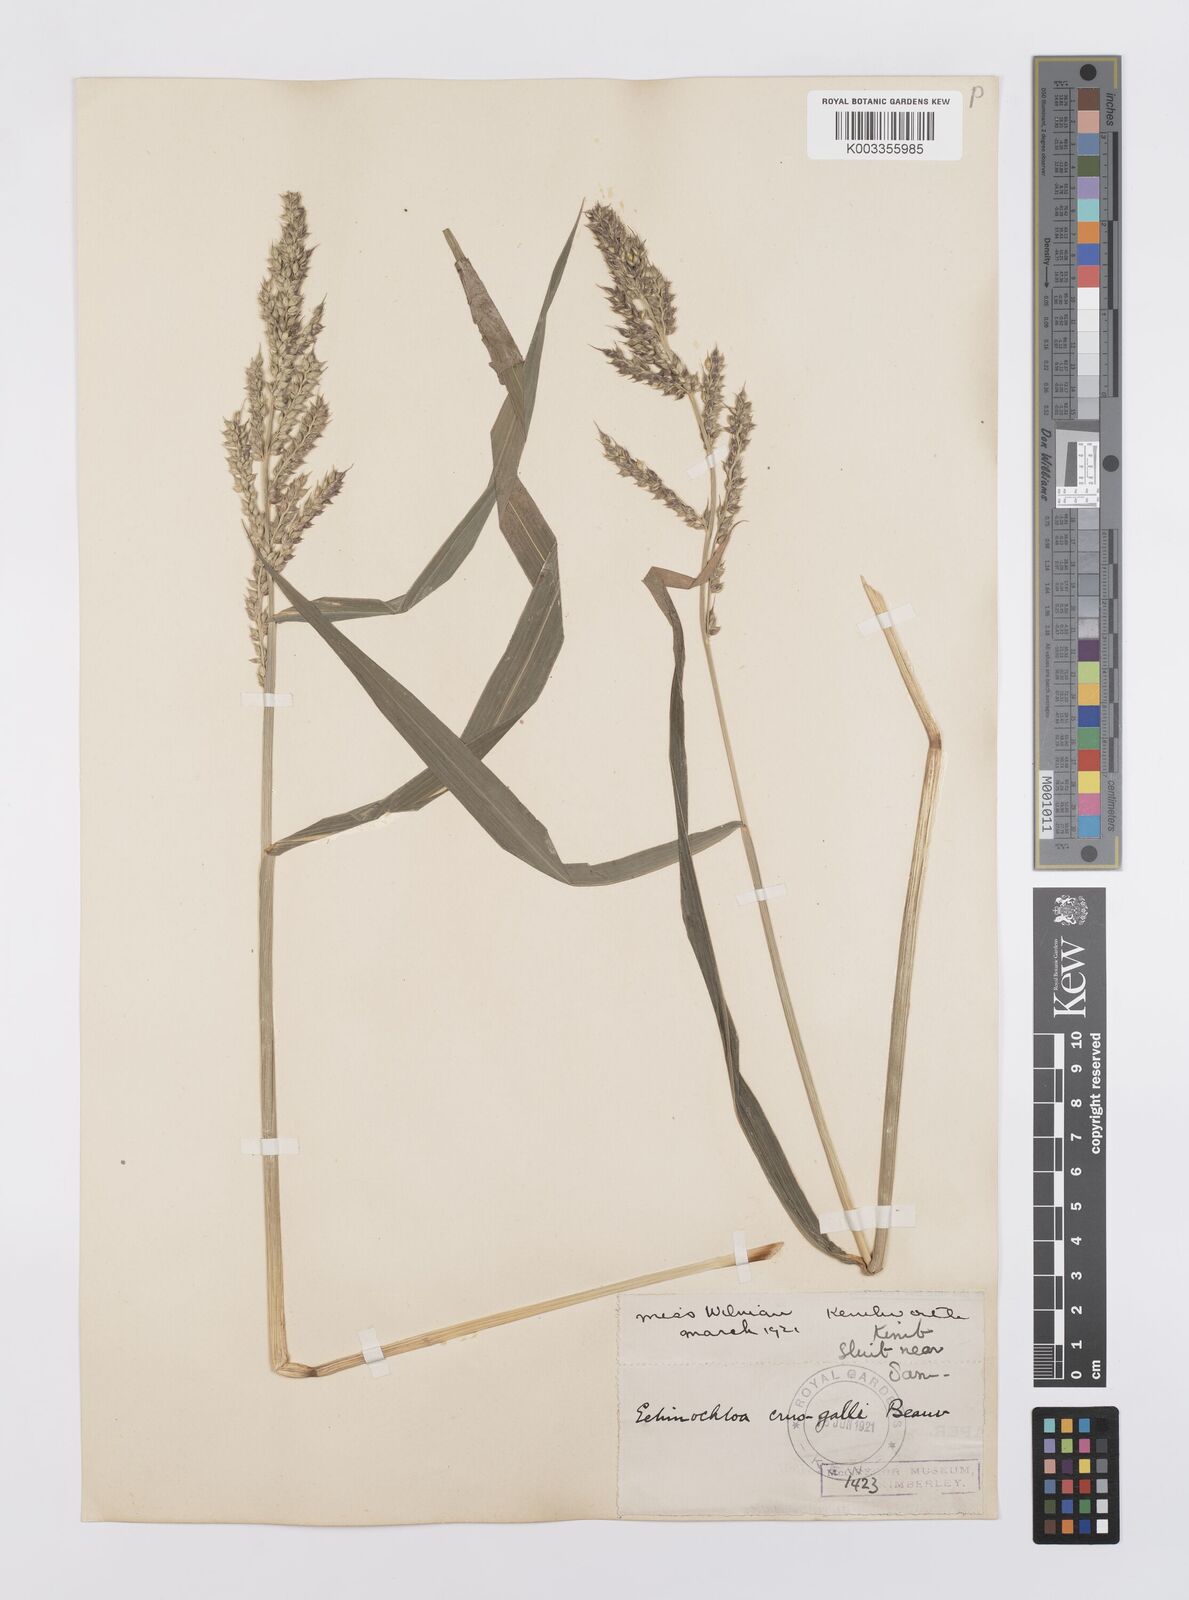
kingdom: Plantae
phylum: Tracheophyta
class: Liliopsida
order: Poales
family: Poaceae
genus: Echinochloa
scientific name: Echinochloa crus-galli
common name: Cockspur
